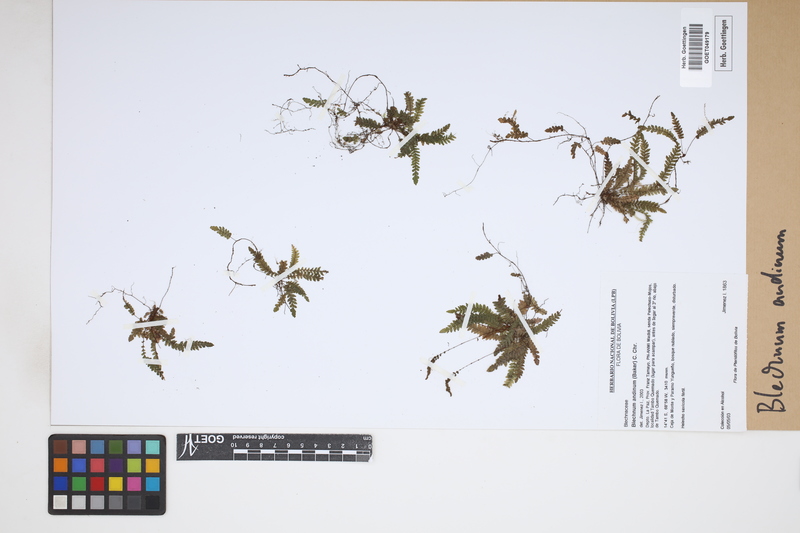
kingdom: Plantae
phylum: Tracheophyta
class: Polypodiopsida
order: Polypodiales
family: Blechnaceae
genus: Austroblechnum
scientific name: Austroblechnum andinum
